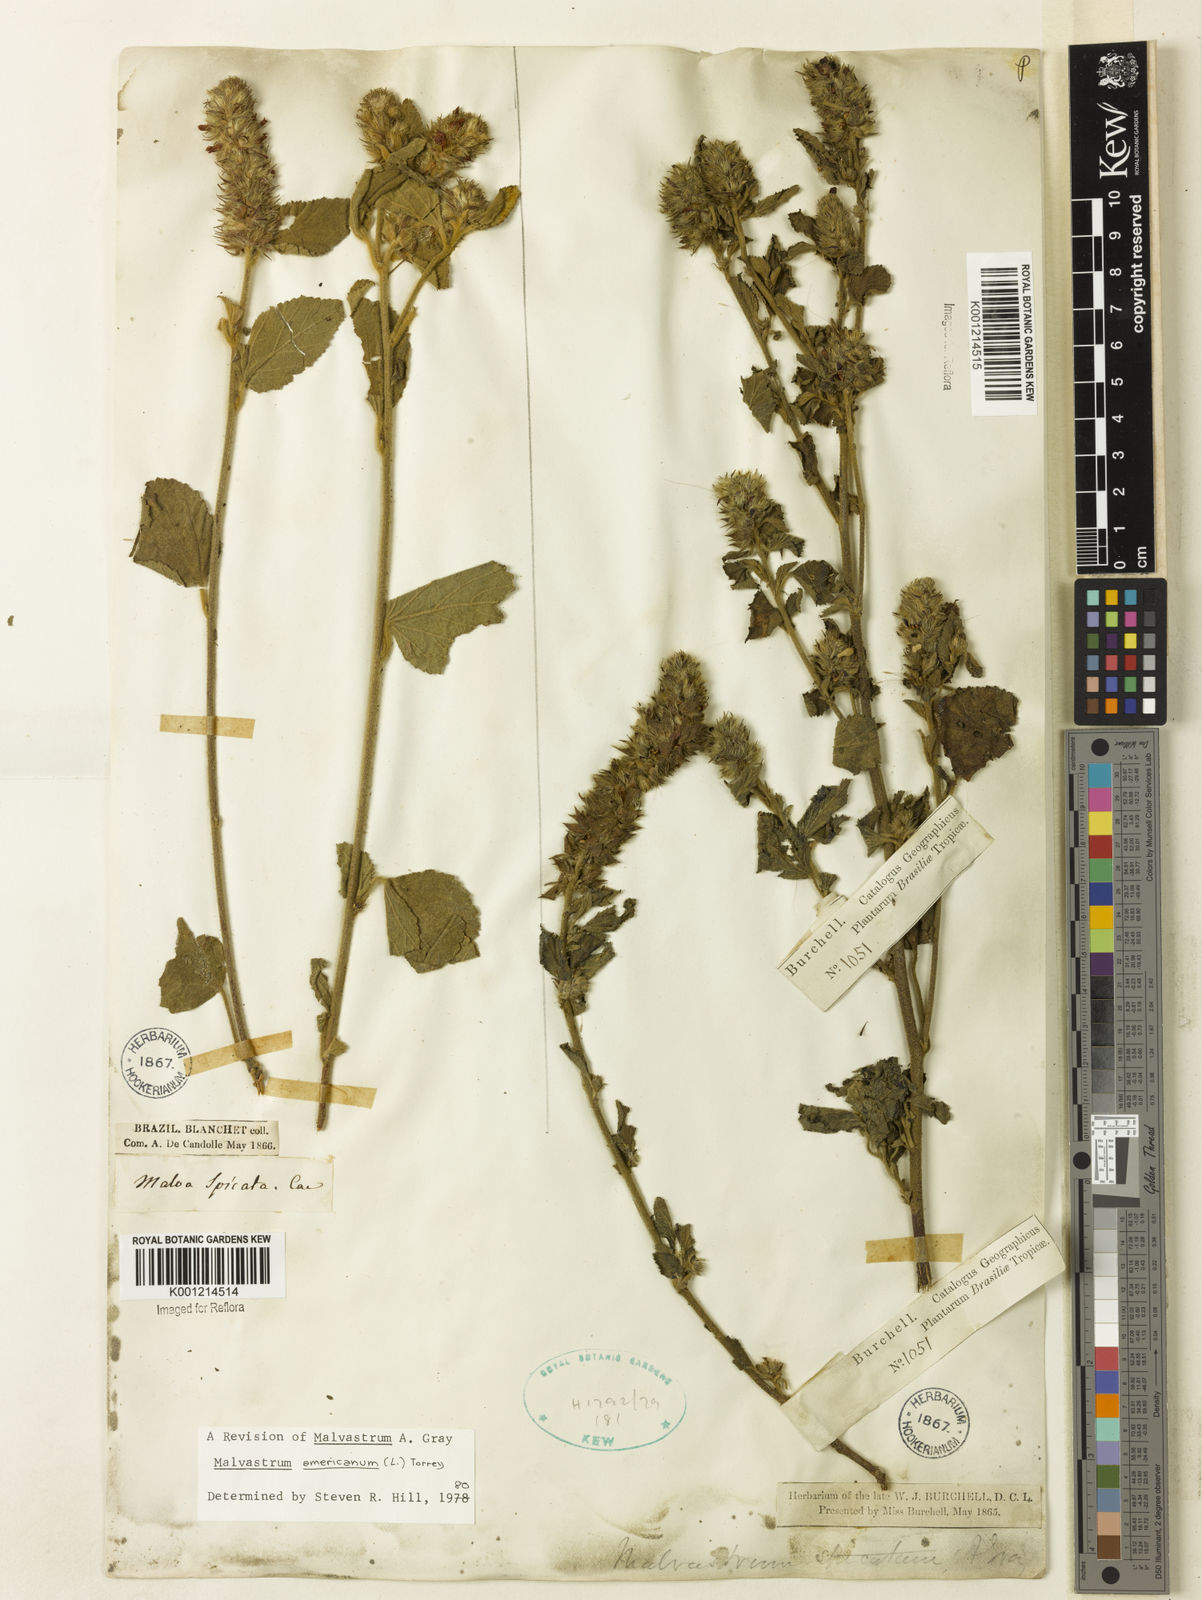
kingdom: Plantae
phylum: Tracheophyta
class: Magnoliopsida
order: Malvales
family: Malvaceae
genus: Malvastrum
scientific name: Malvastrum americanum
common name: Spiked malvastrum
